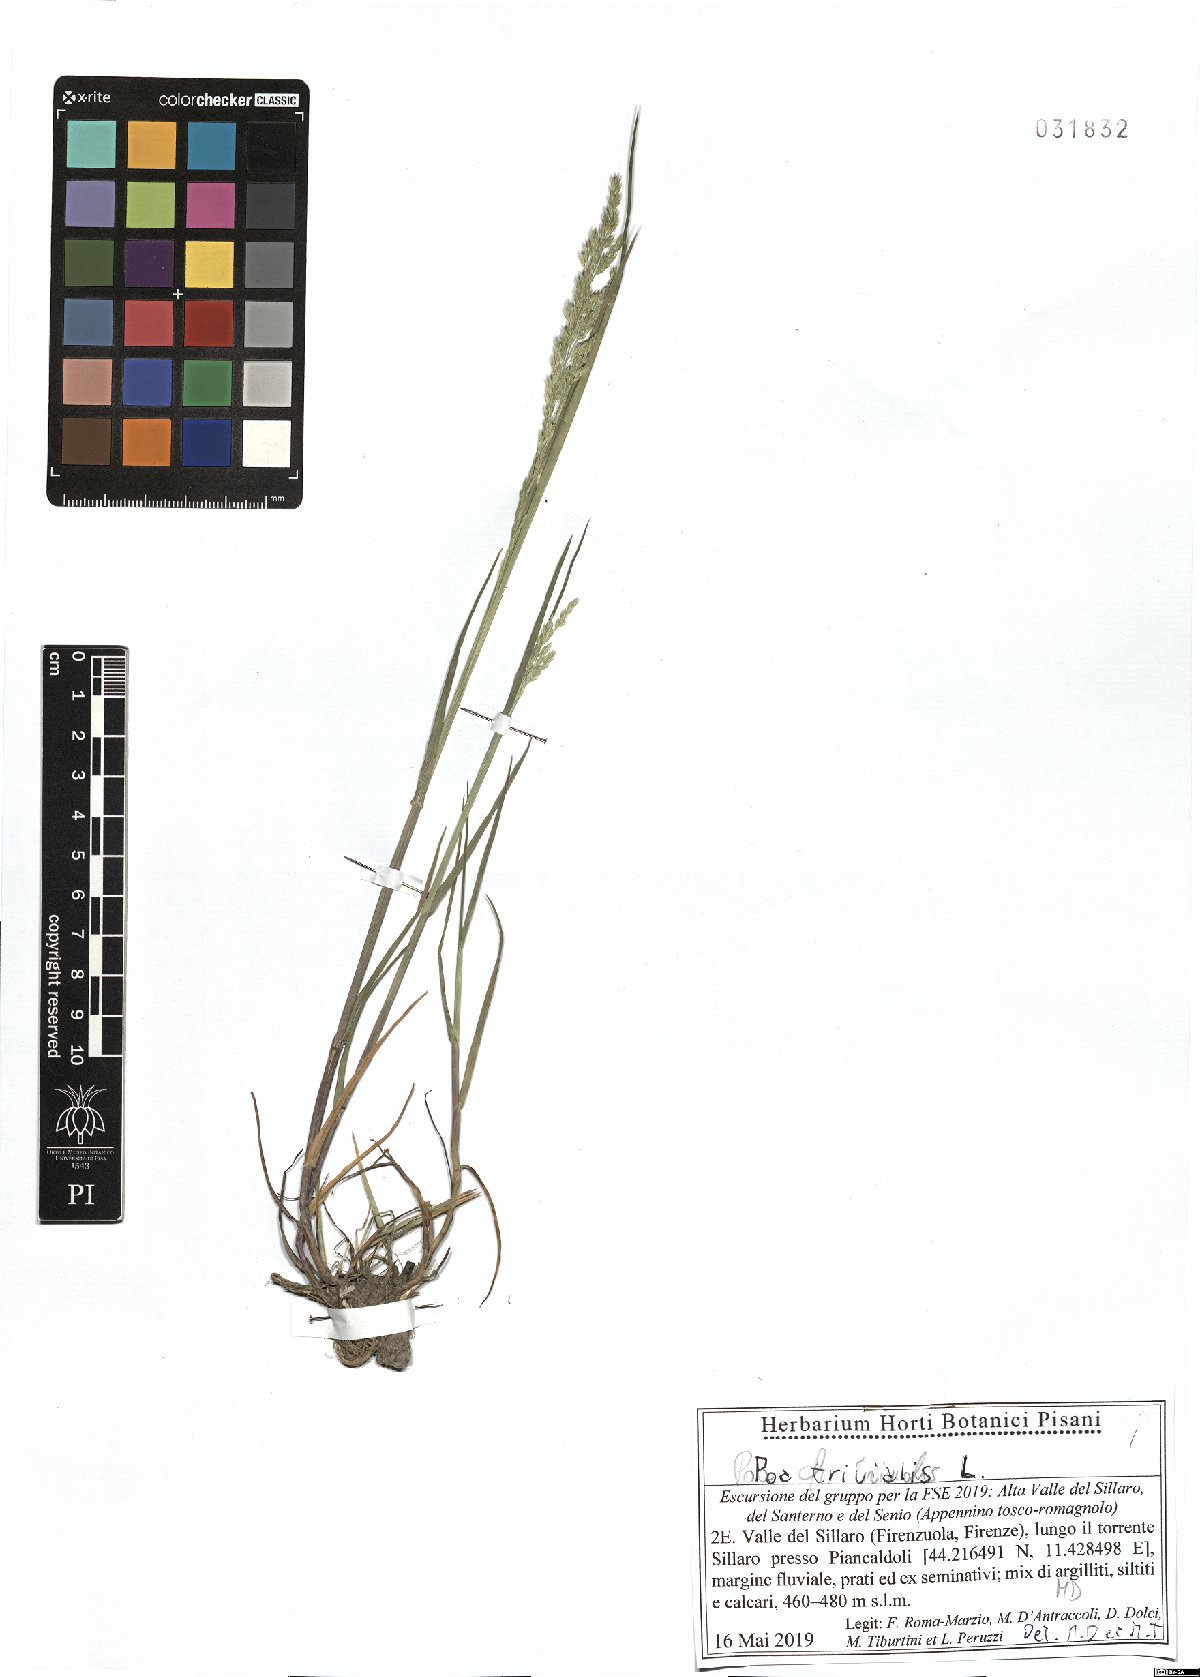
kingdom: Plantae
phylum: Tracheophyta
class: Liliopsida
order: Poales
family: Poaceae
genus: Poa
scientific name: Poa trivialis
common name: Rough bluegrass
